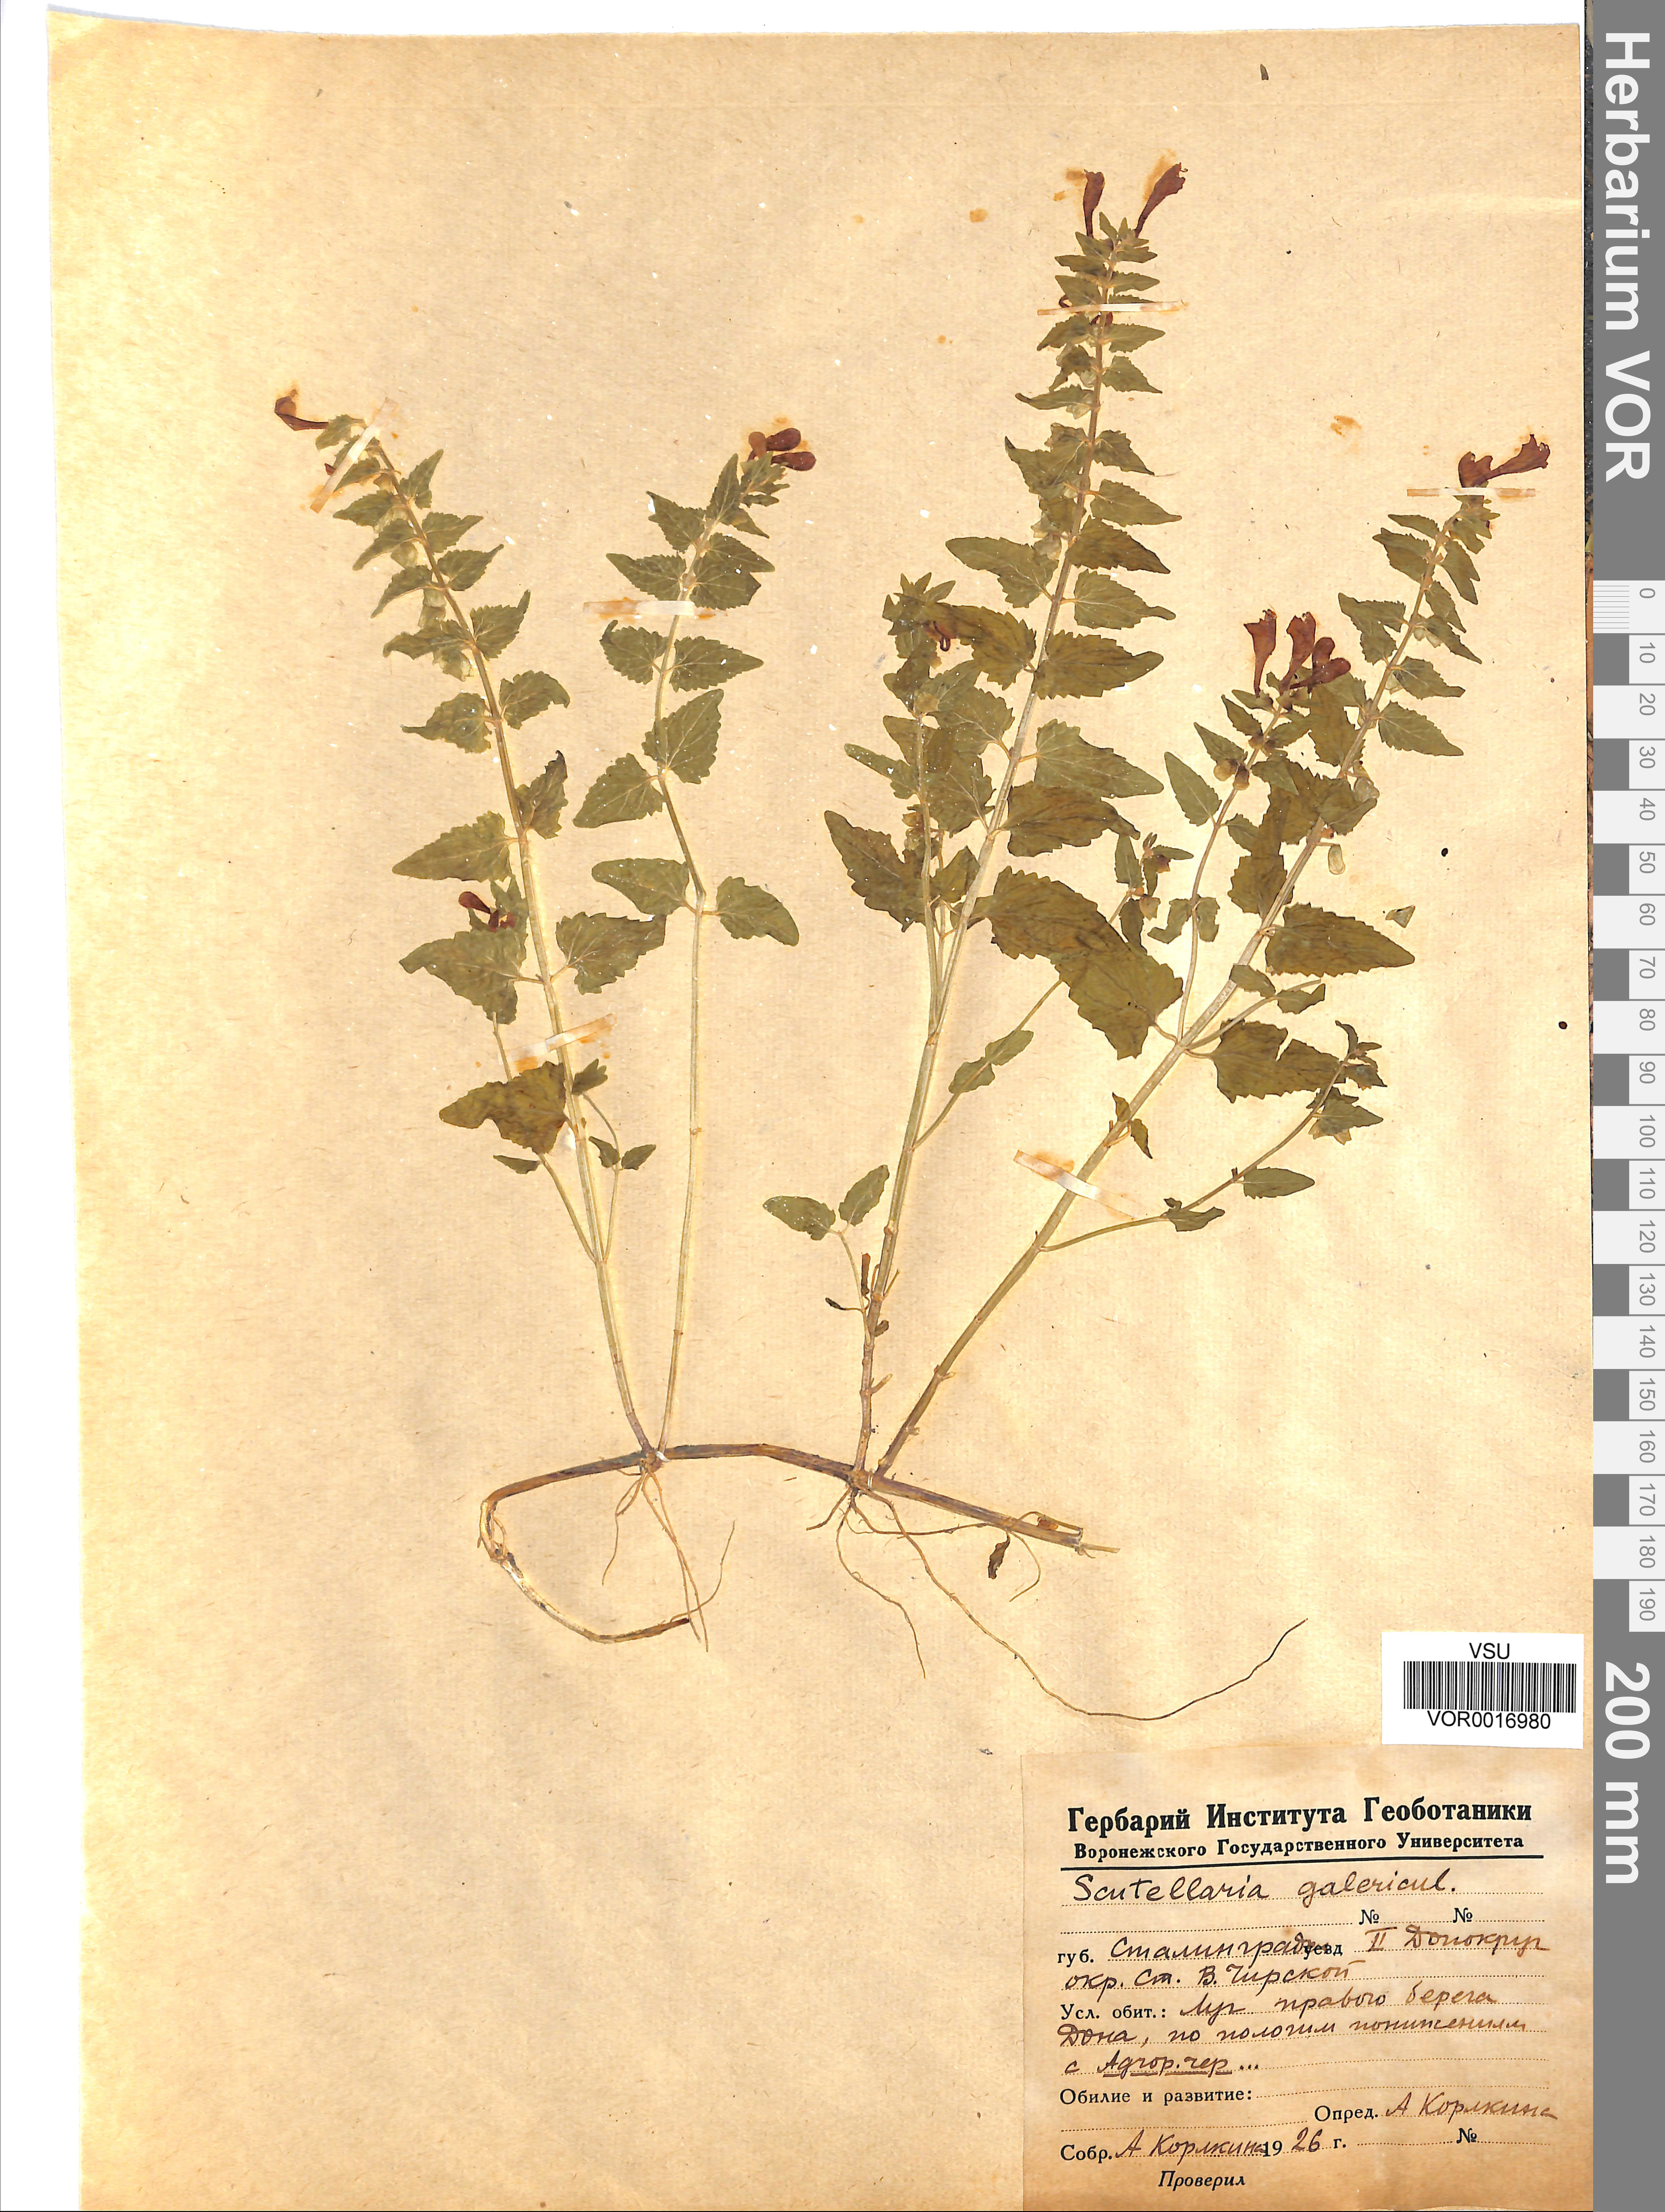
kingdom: Plantae
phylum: Tracheophyta
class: Magnoliopsida
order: Lamiales
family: Lamiaceae
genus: Scutellaria
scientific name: Scutellaria galericulata
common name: Skullcap
